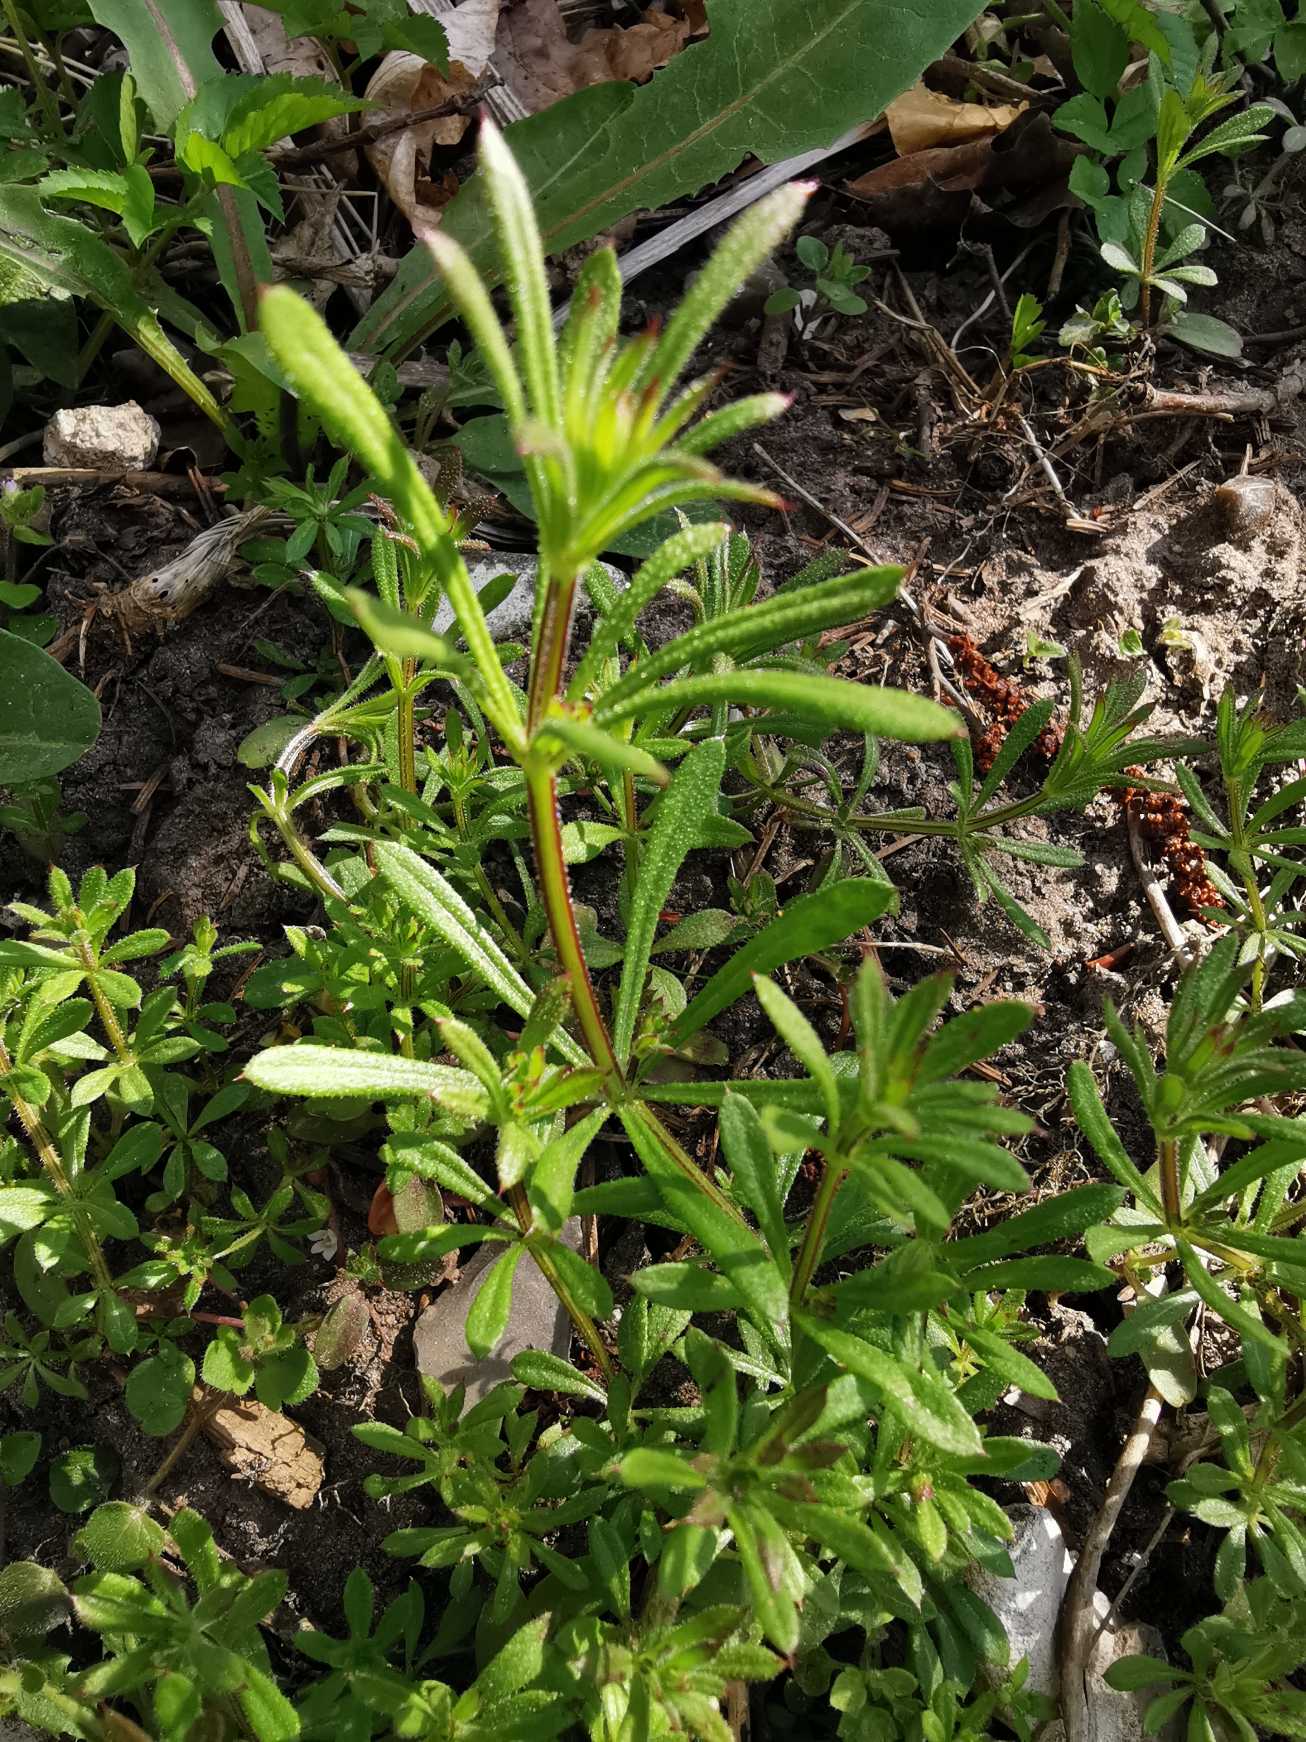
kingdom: Plantae
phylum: Tracheophyta
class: Magnoliopsida
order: Gentianales
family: Rubiaceae
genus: Galium
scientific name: Galium aparine
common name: Burre-snerre
